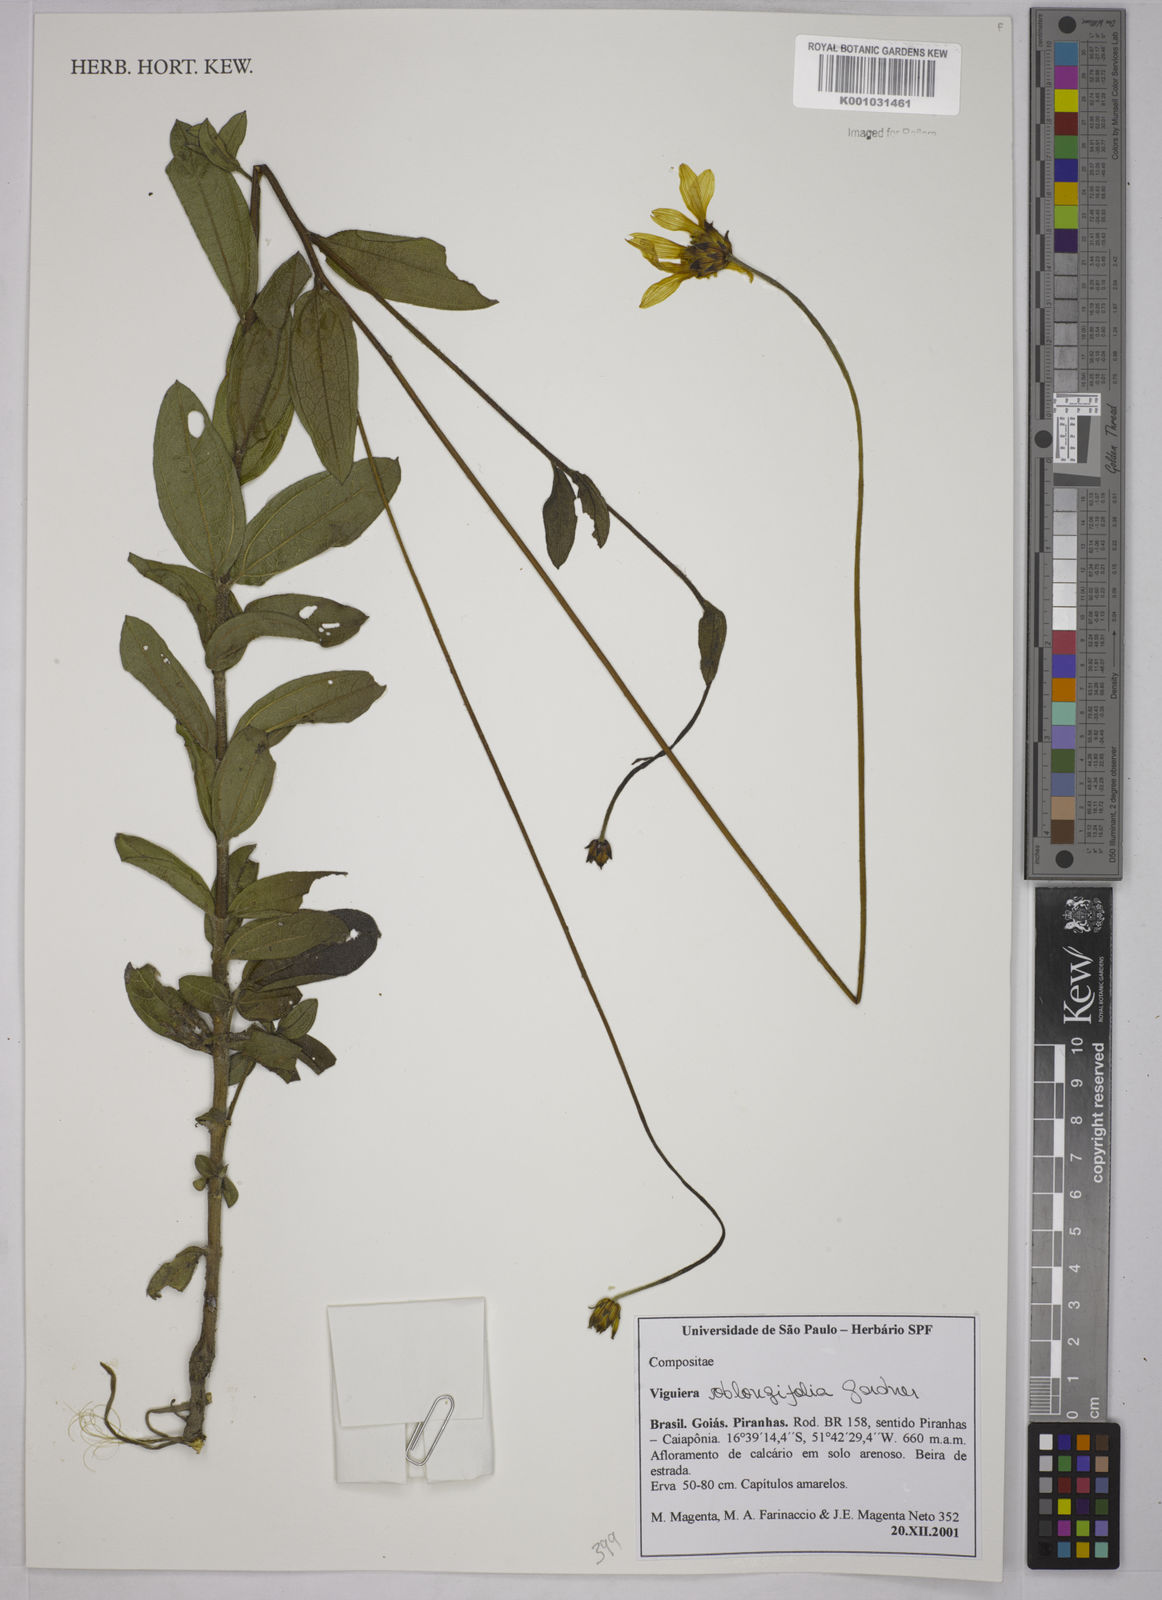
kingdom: Plantae
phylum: Tracheophyta
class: Magnoliopsida
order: Asterales
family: Asteraceae
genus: Aldama
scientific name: Aldama oblongifolia
